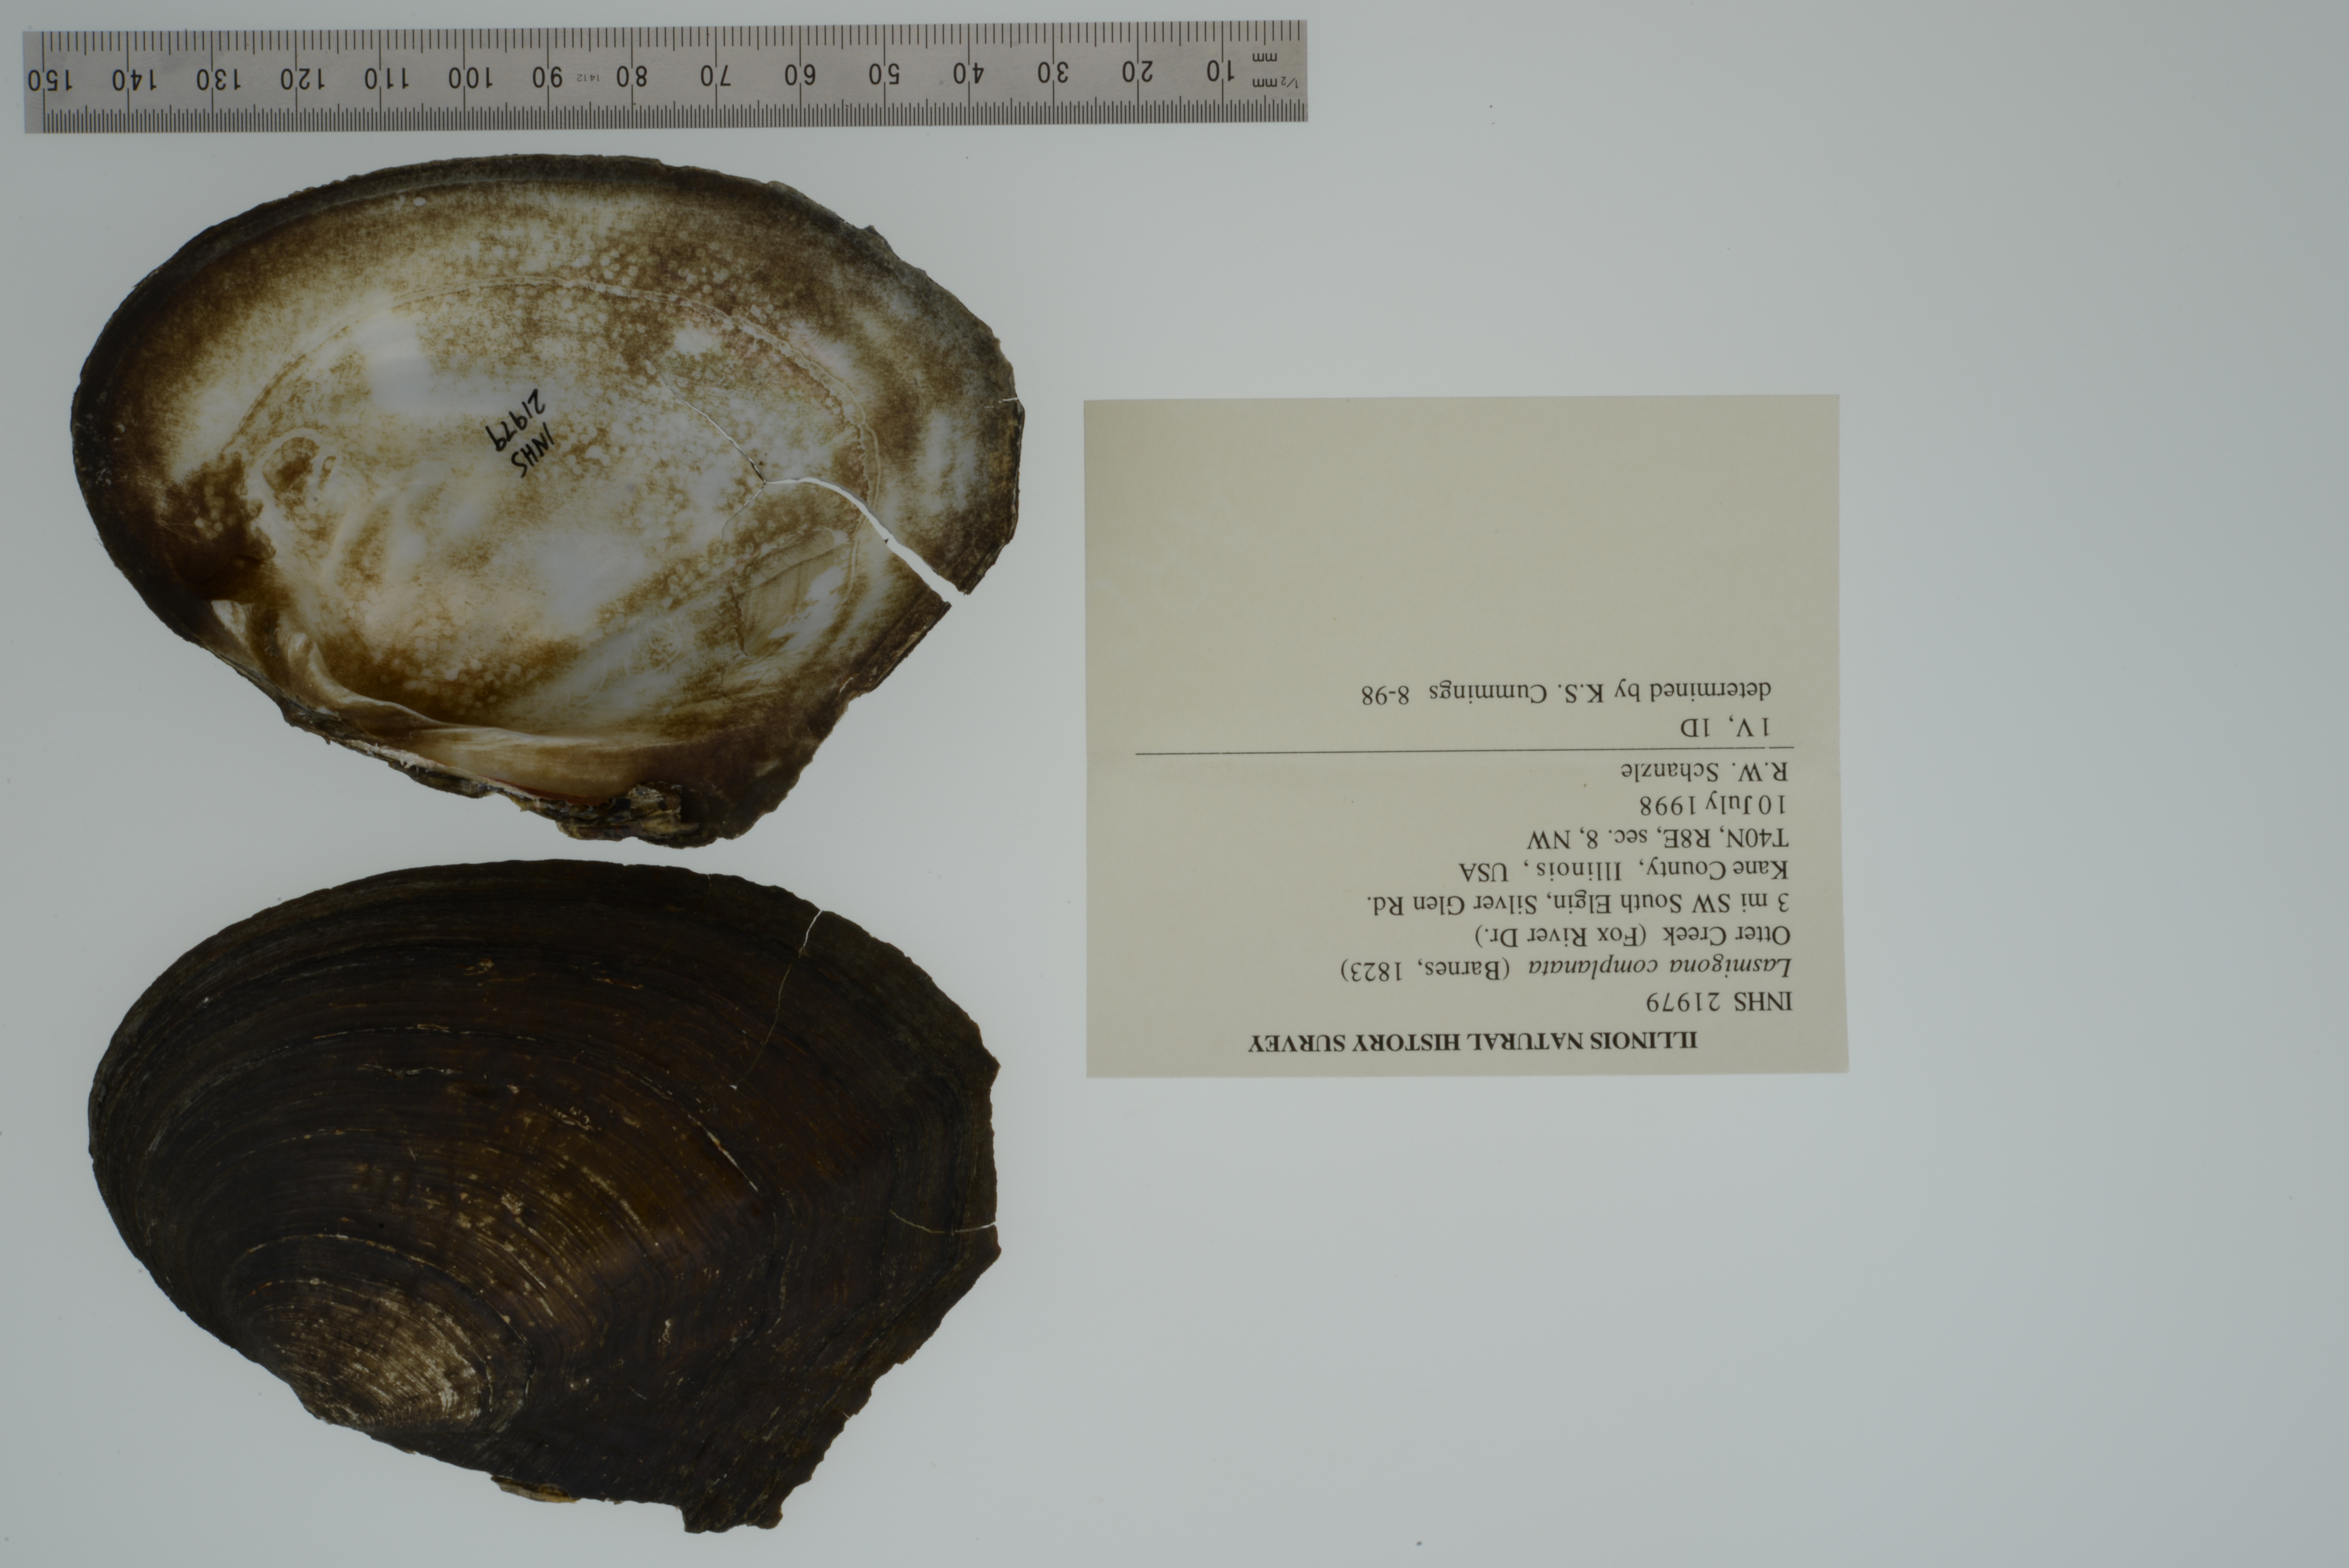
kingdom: Animalia
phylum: Mollusca
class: Bivalvia
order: Unionida
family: Unionidae
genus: Lasmigona
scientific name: Lasmigona complanata
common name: White heelsplitter
